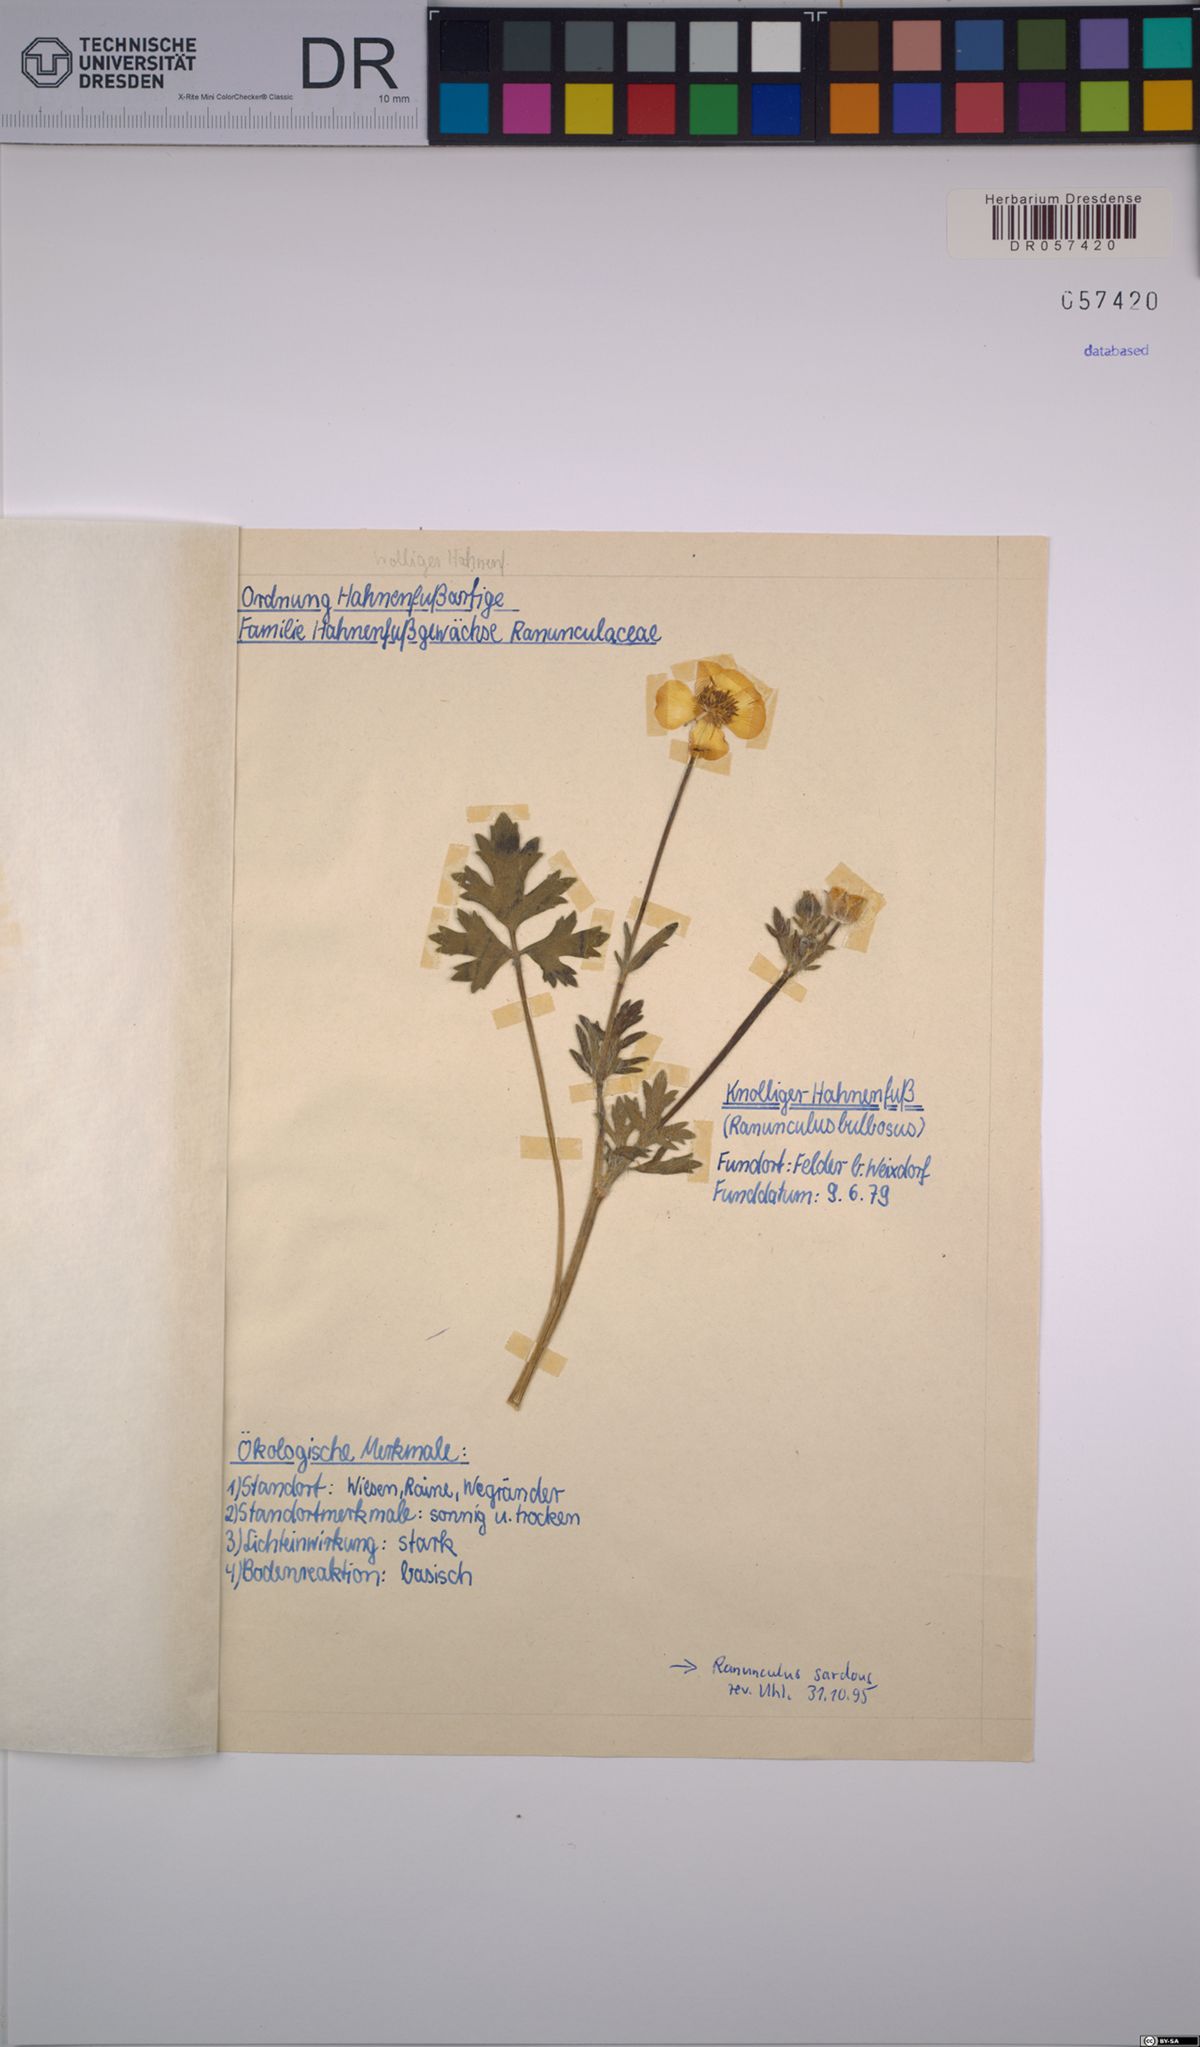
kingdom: Plantae
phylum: Tracheophyta
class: Magnoliopsida
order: Ranunculales
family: Ranunculaceae
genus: Ranunculus
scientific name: Ranunculus bulbosus
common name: Bulbous buttercup
